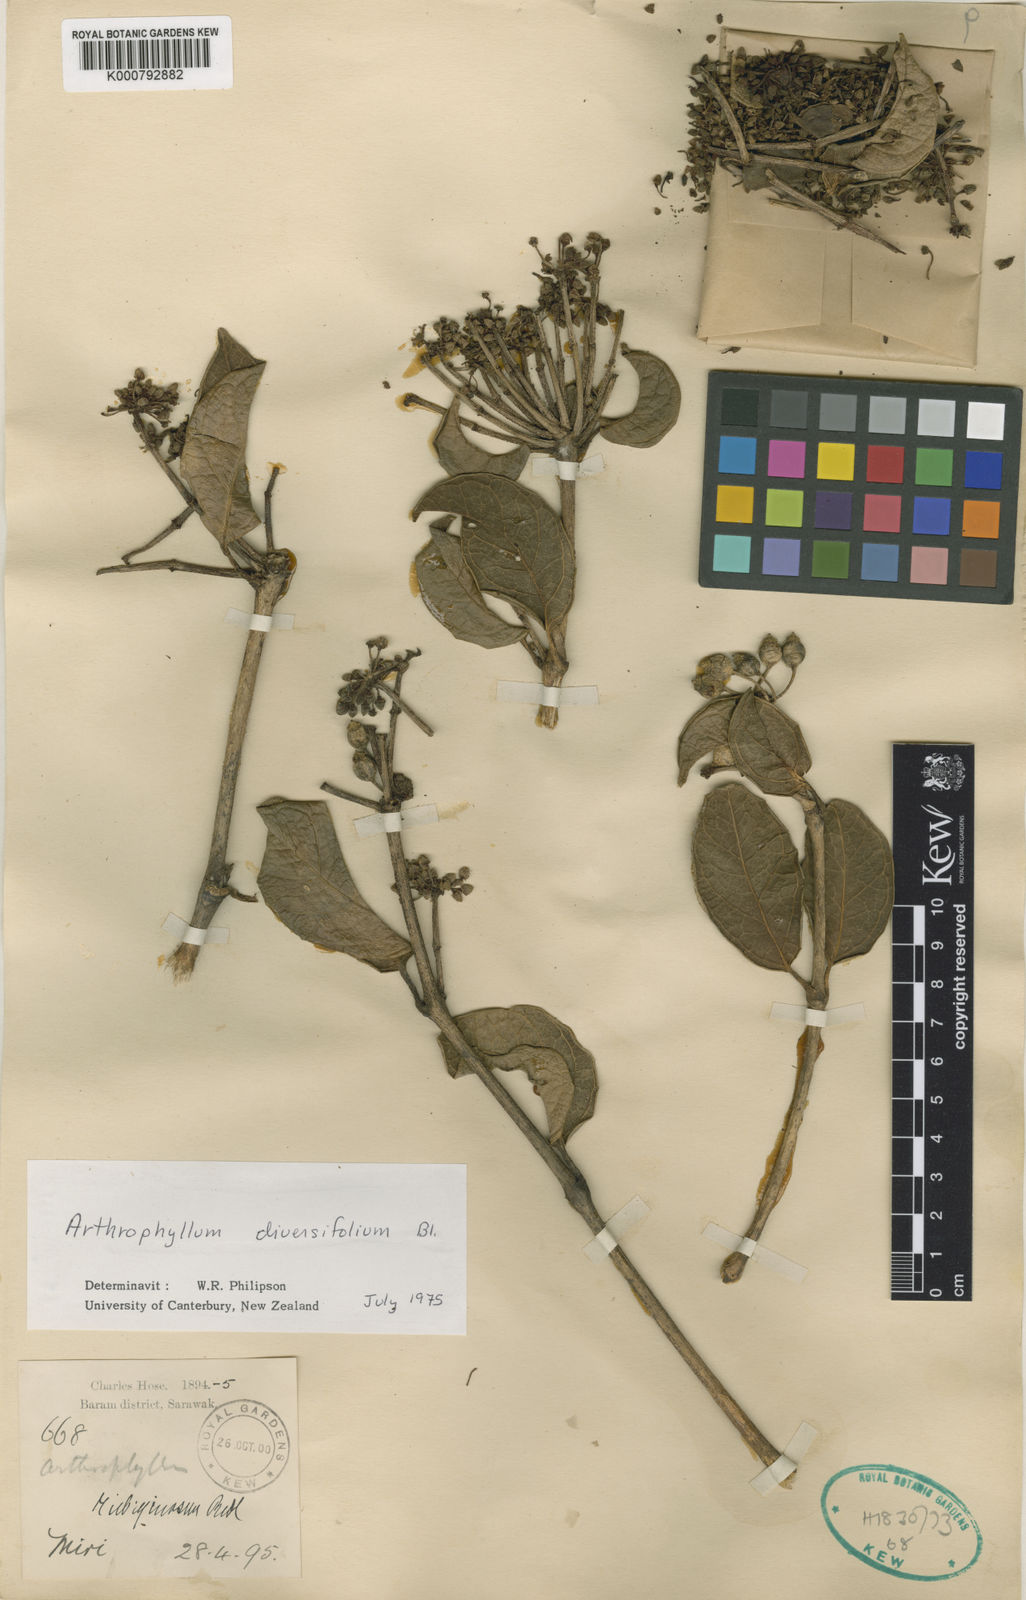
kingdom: Plantae
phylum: Tracheophyta
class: Magnoliopsida
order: Apiales
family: Araliaceae
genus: Polyscias
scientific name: Polyscias diversifolia
